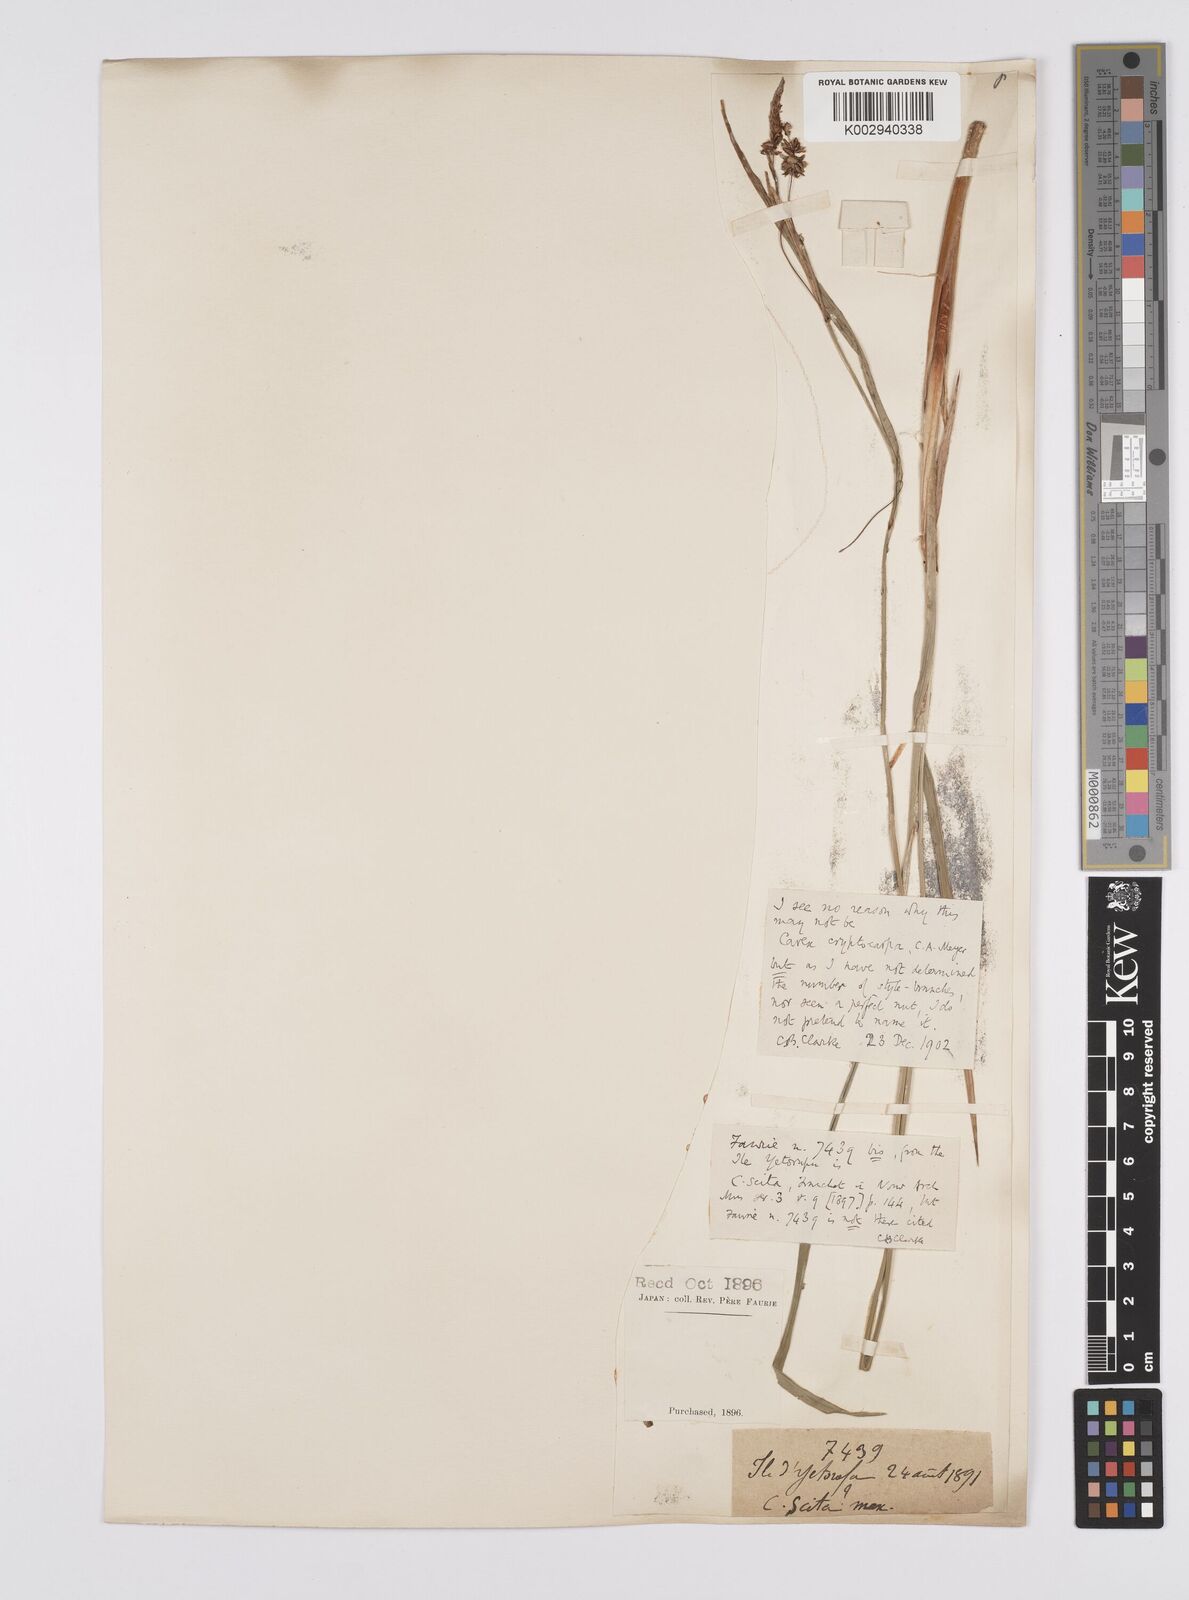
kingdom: Plantae
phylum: Tracheophyta
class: Liliopsida
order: Poales
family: Cyperaceae
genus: Carex
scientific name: Carex lyngbyei
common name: Lyngbye's sedge
